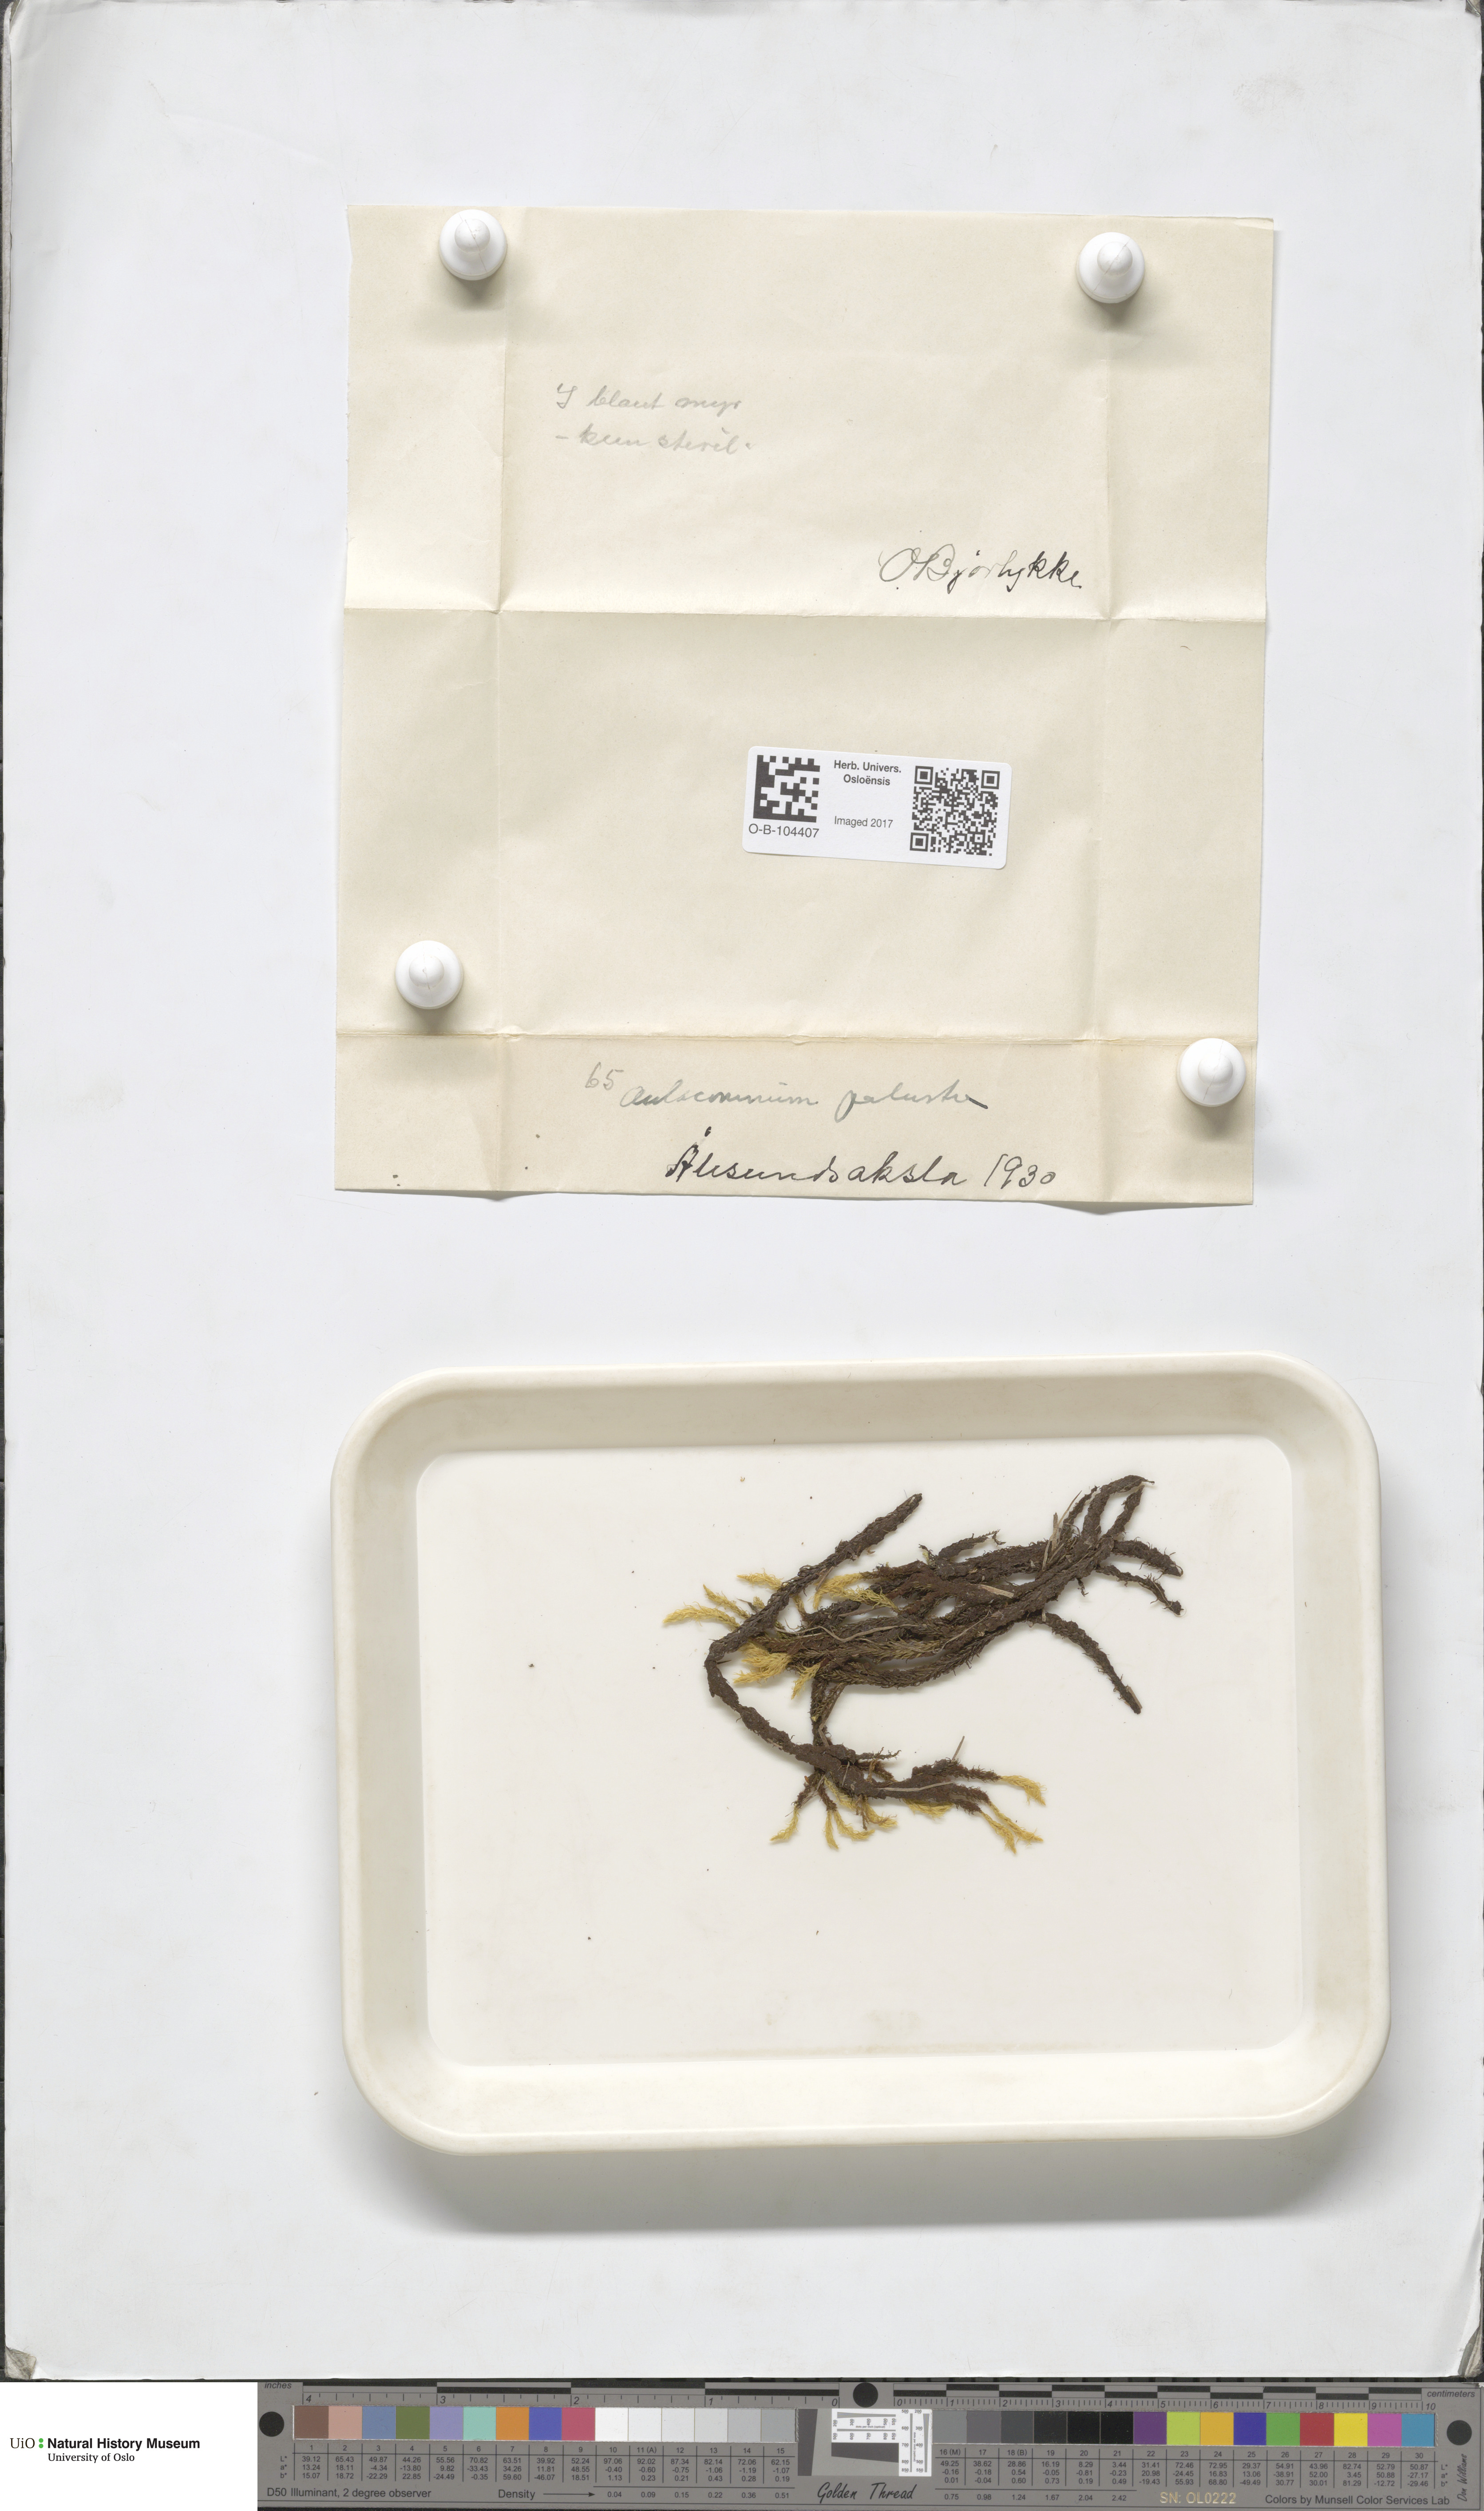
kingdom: Plantae
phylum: Bryophyta
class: Bryopsida
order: Aulacomniales
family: Aulacomniaceae
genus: Aulacomnium
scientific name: Aulacomnium palustre
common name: Bog groove-moss
